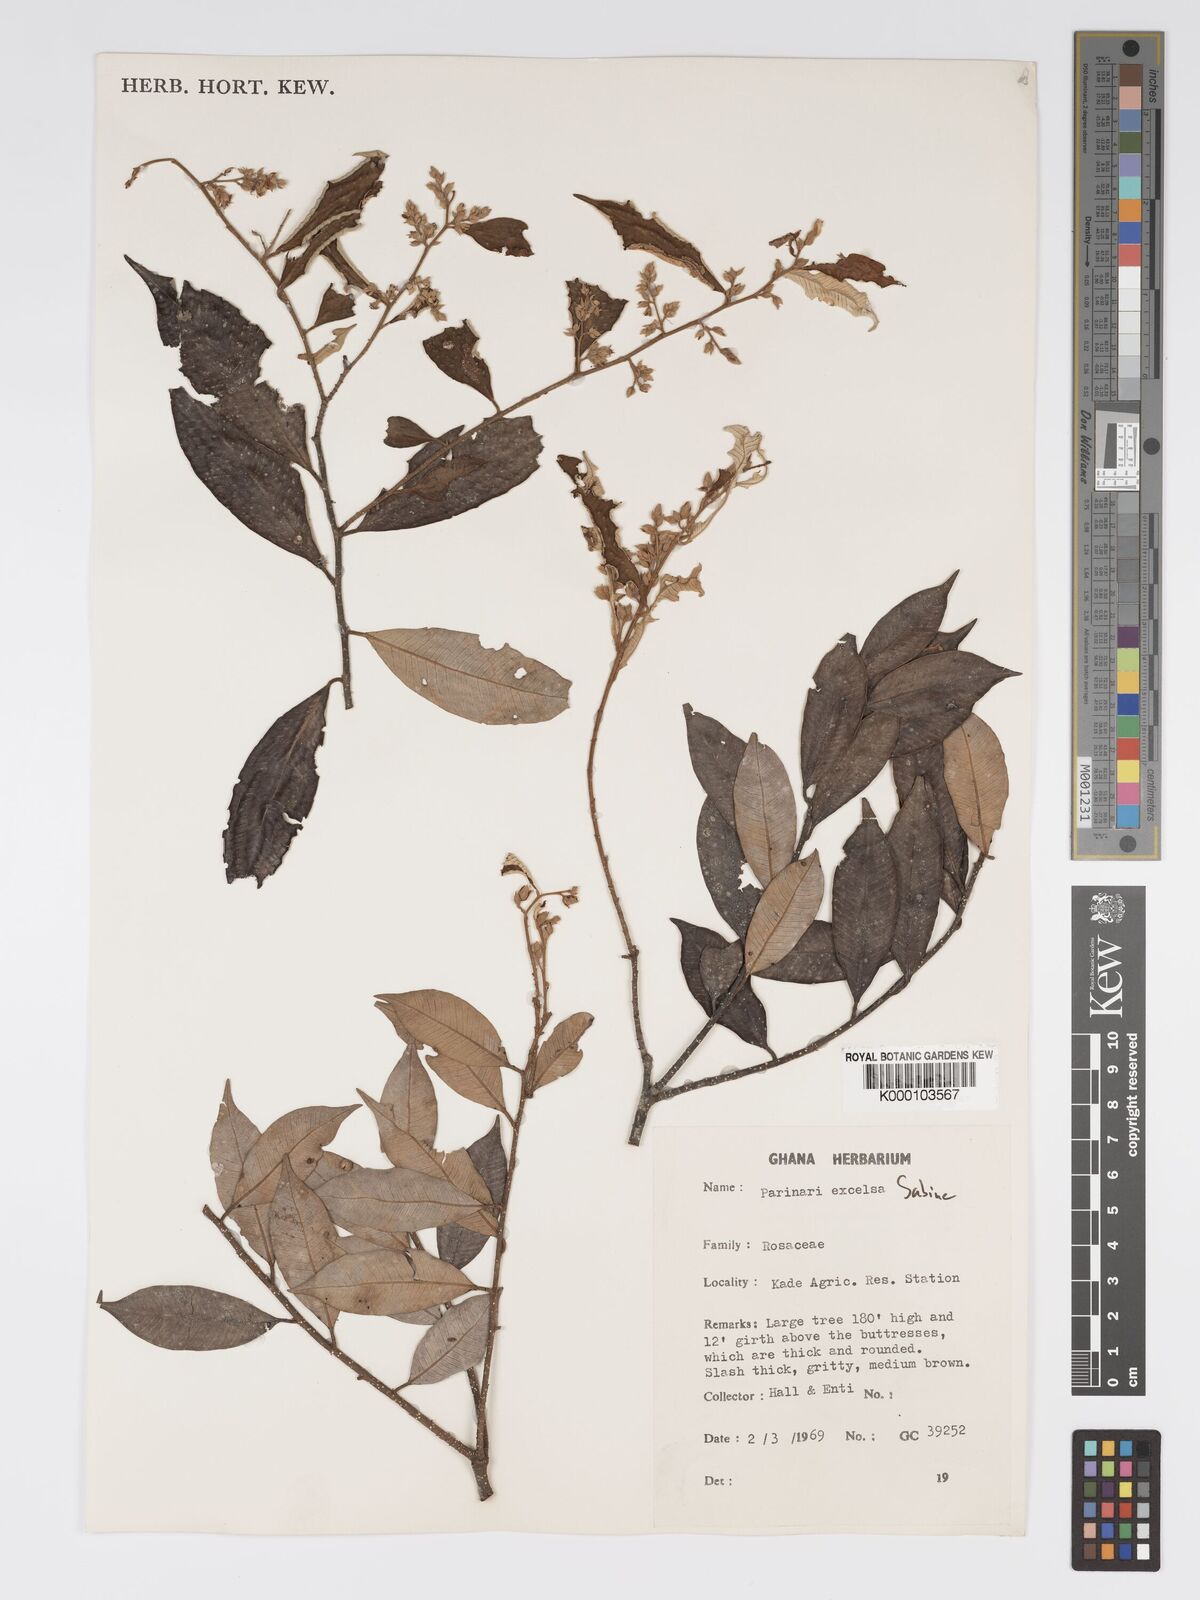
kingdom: Plantae
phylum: Tracheophyta
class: Magnoliopsida
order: Malpighiales
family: Chrysobalanaceae
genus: Parinari
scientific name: Parinari excelsa
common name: Guinea-plum
